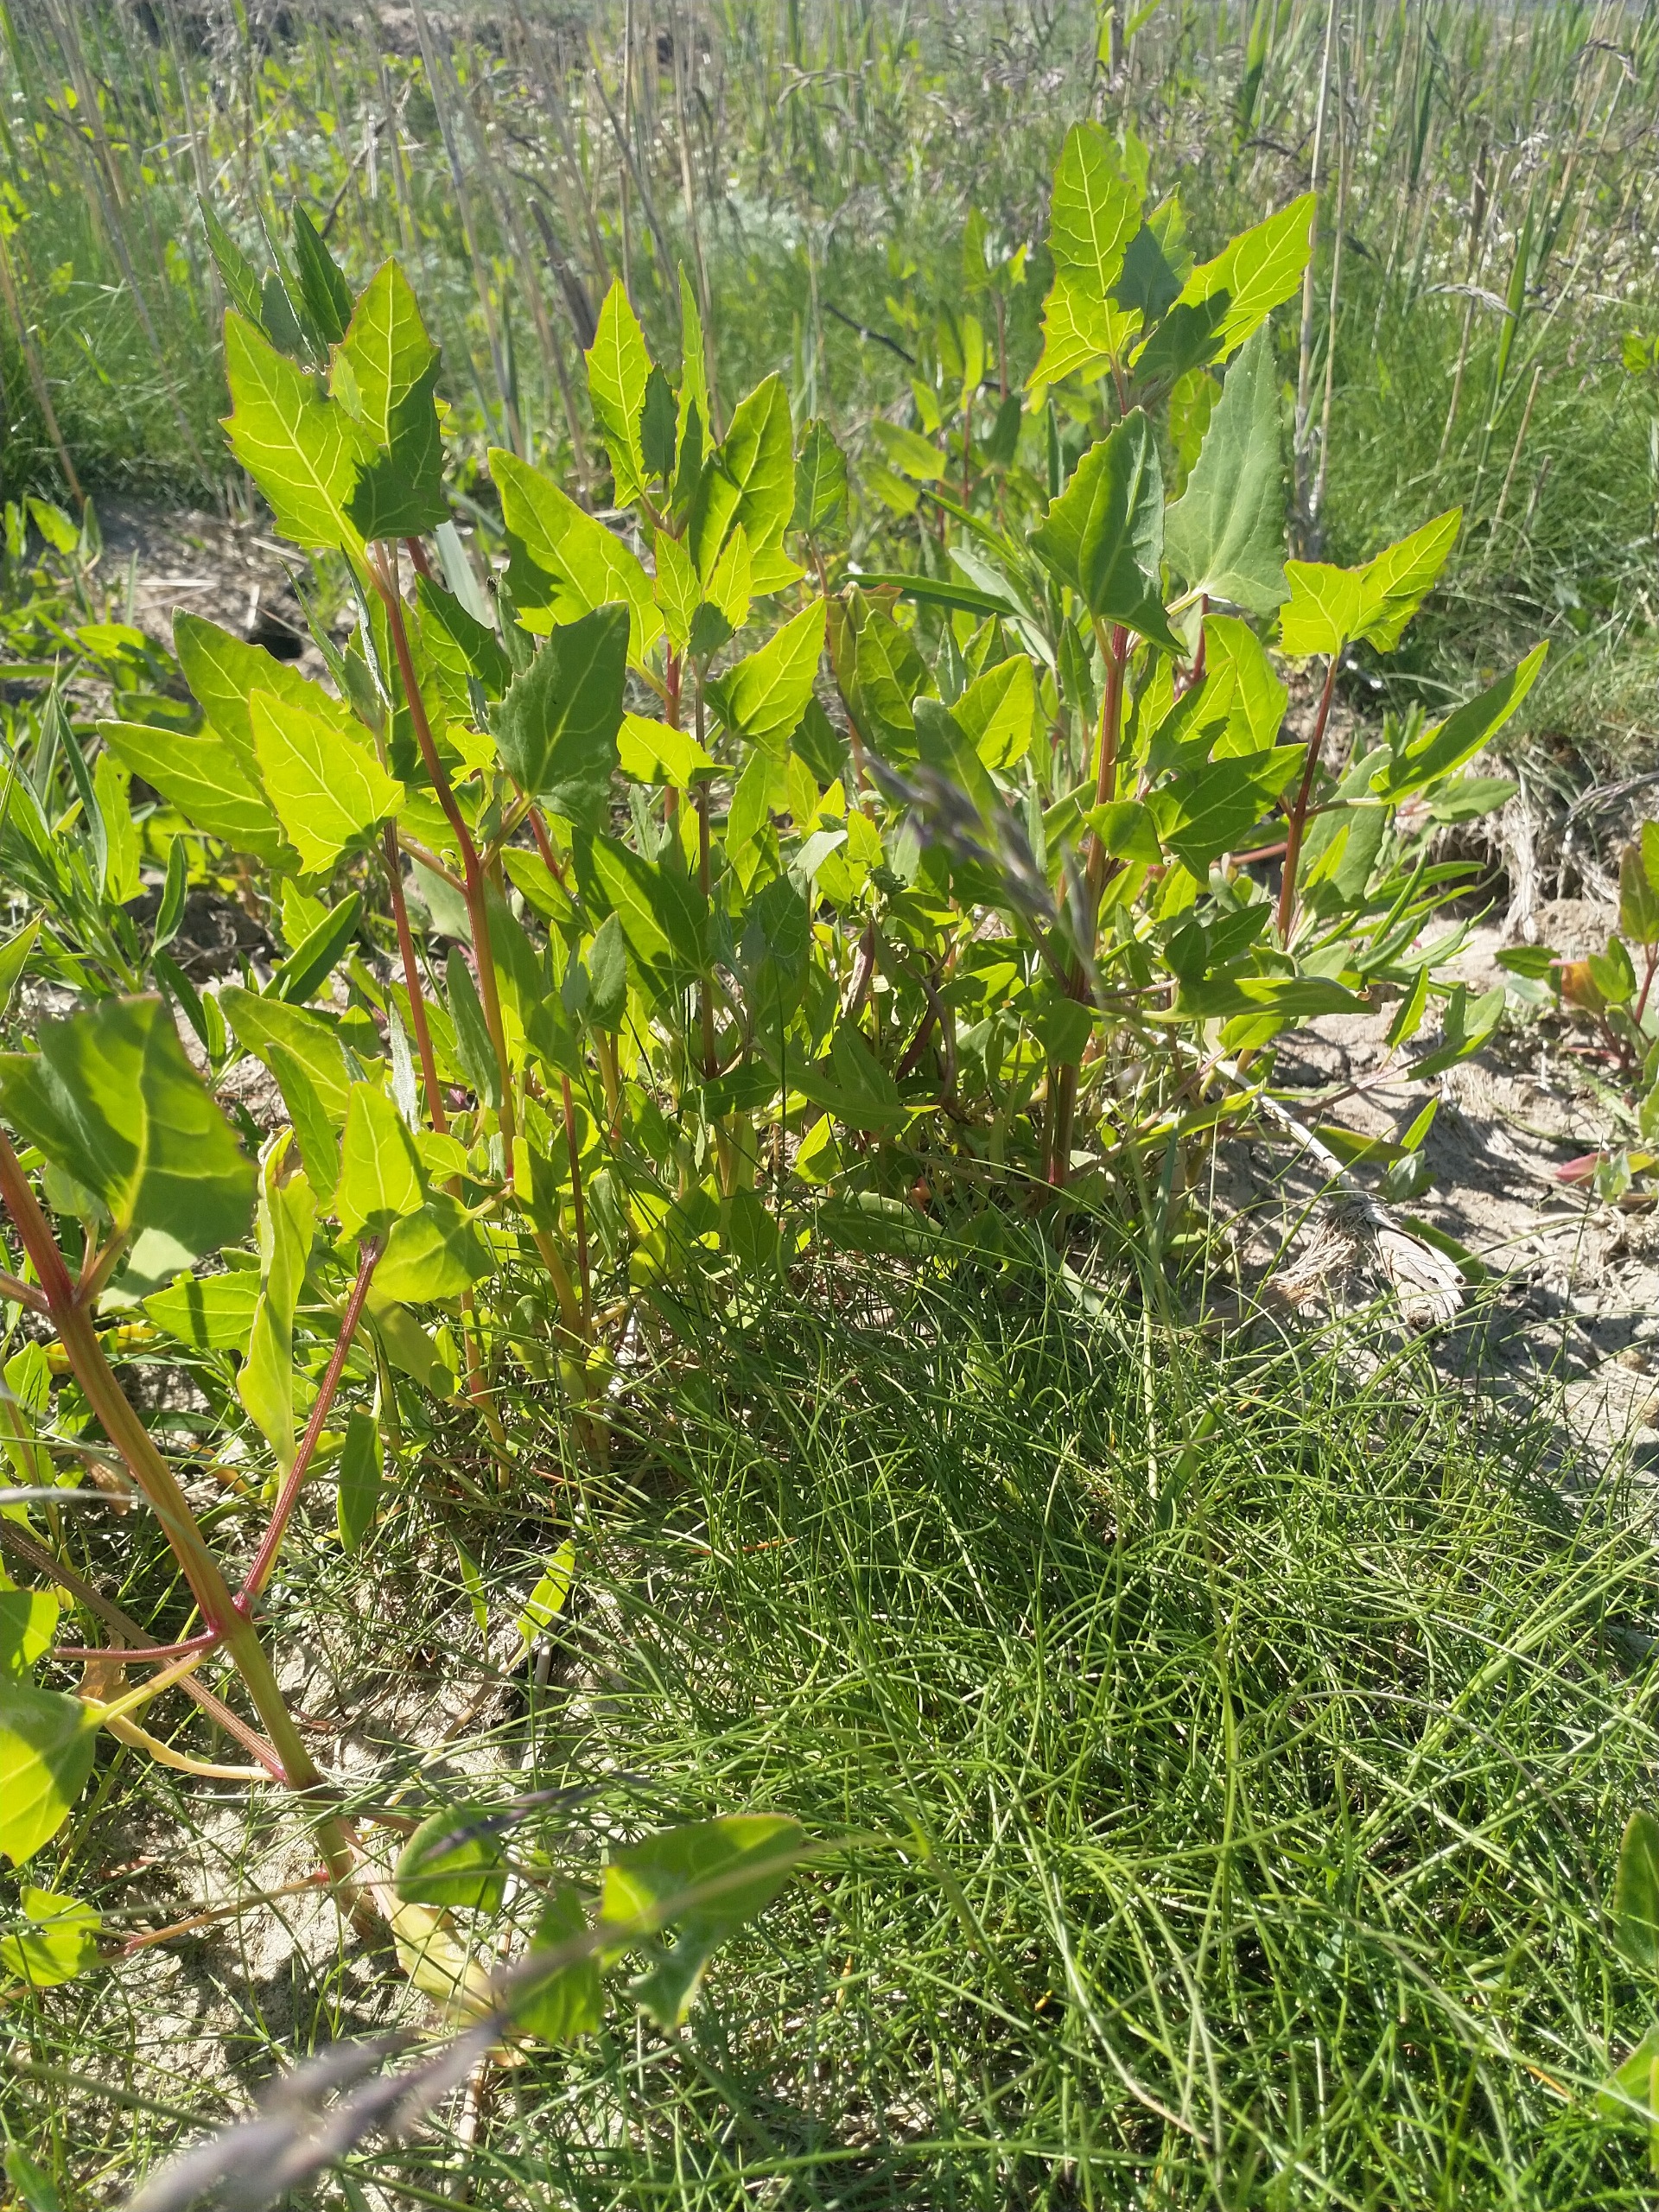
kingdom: Plantae
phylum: Tracheophyta
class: Magnoliopsida
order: Caryophyllales
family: Amaranthaceae
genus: Atriplex
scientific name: Atriplex prostrata
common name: Spyd-mælde
